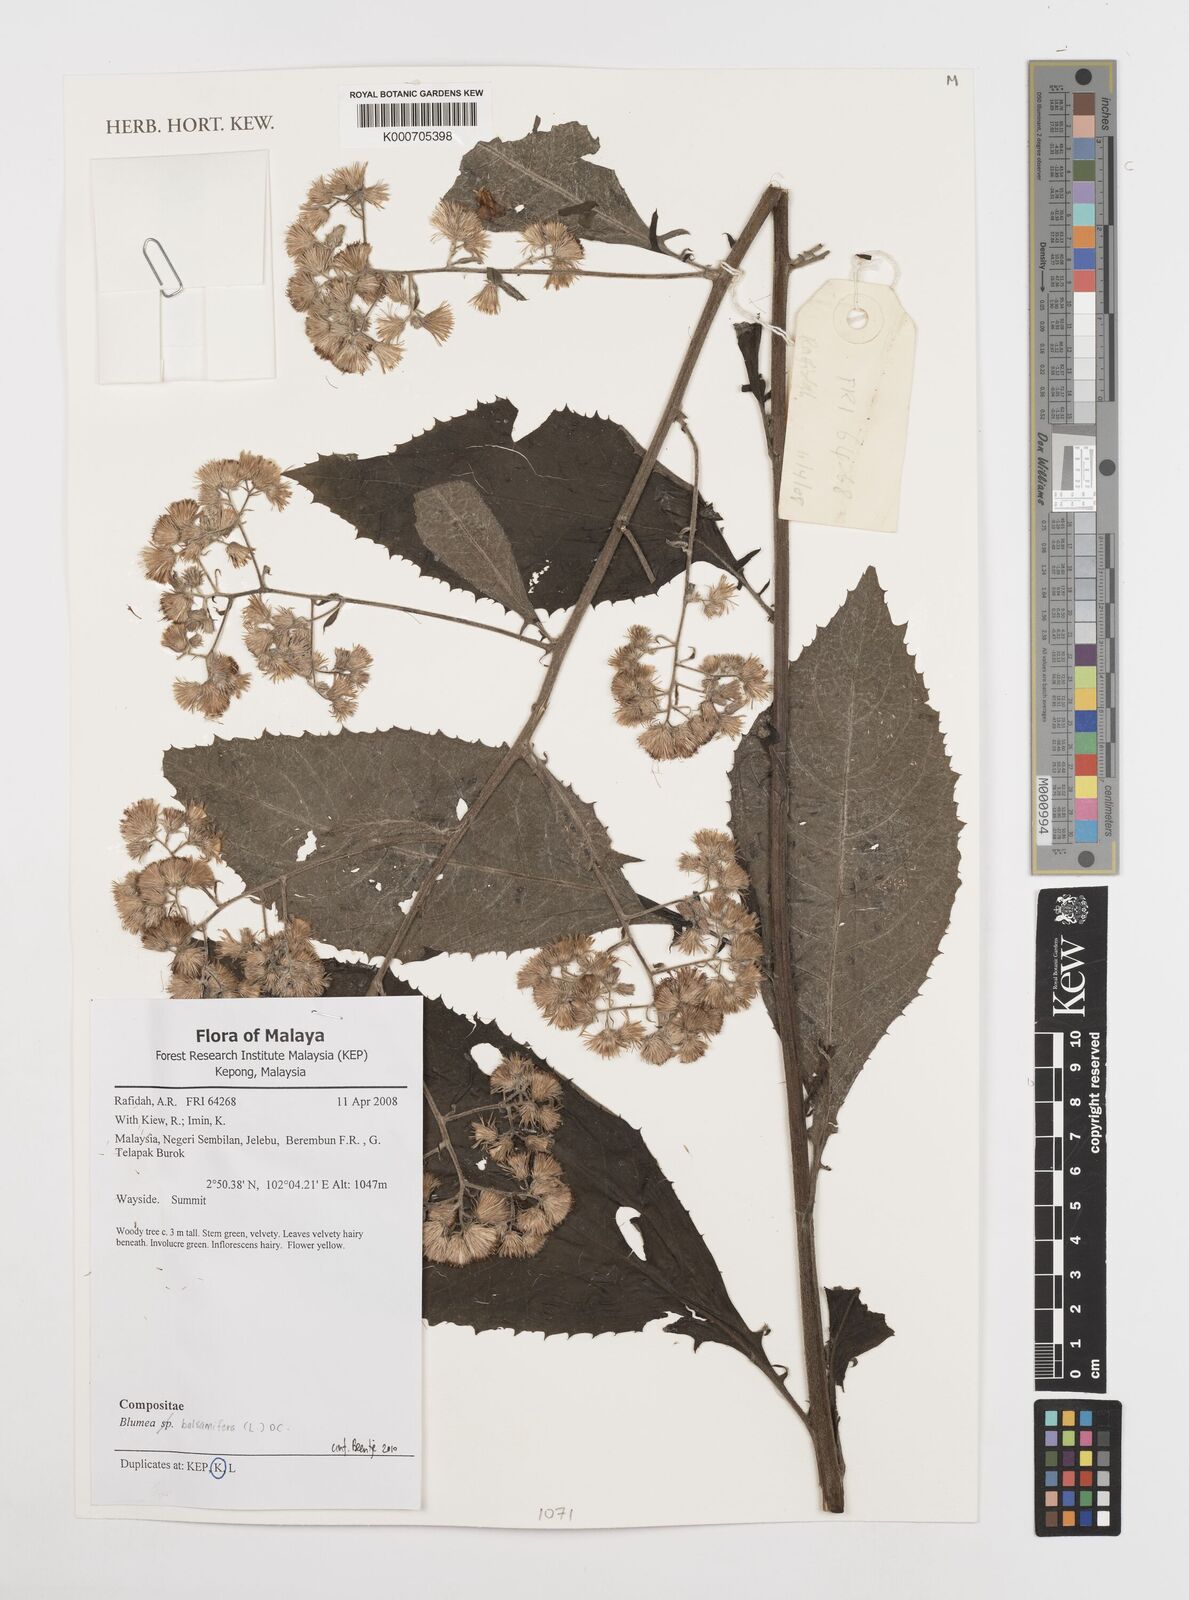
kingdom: Plantae
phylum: Tracheophyta
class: Magnoliopsida
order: Asterales
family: Asteraceae
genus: Blumea
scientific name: Blumea balsamifera
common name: Ngai camphor
